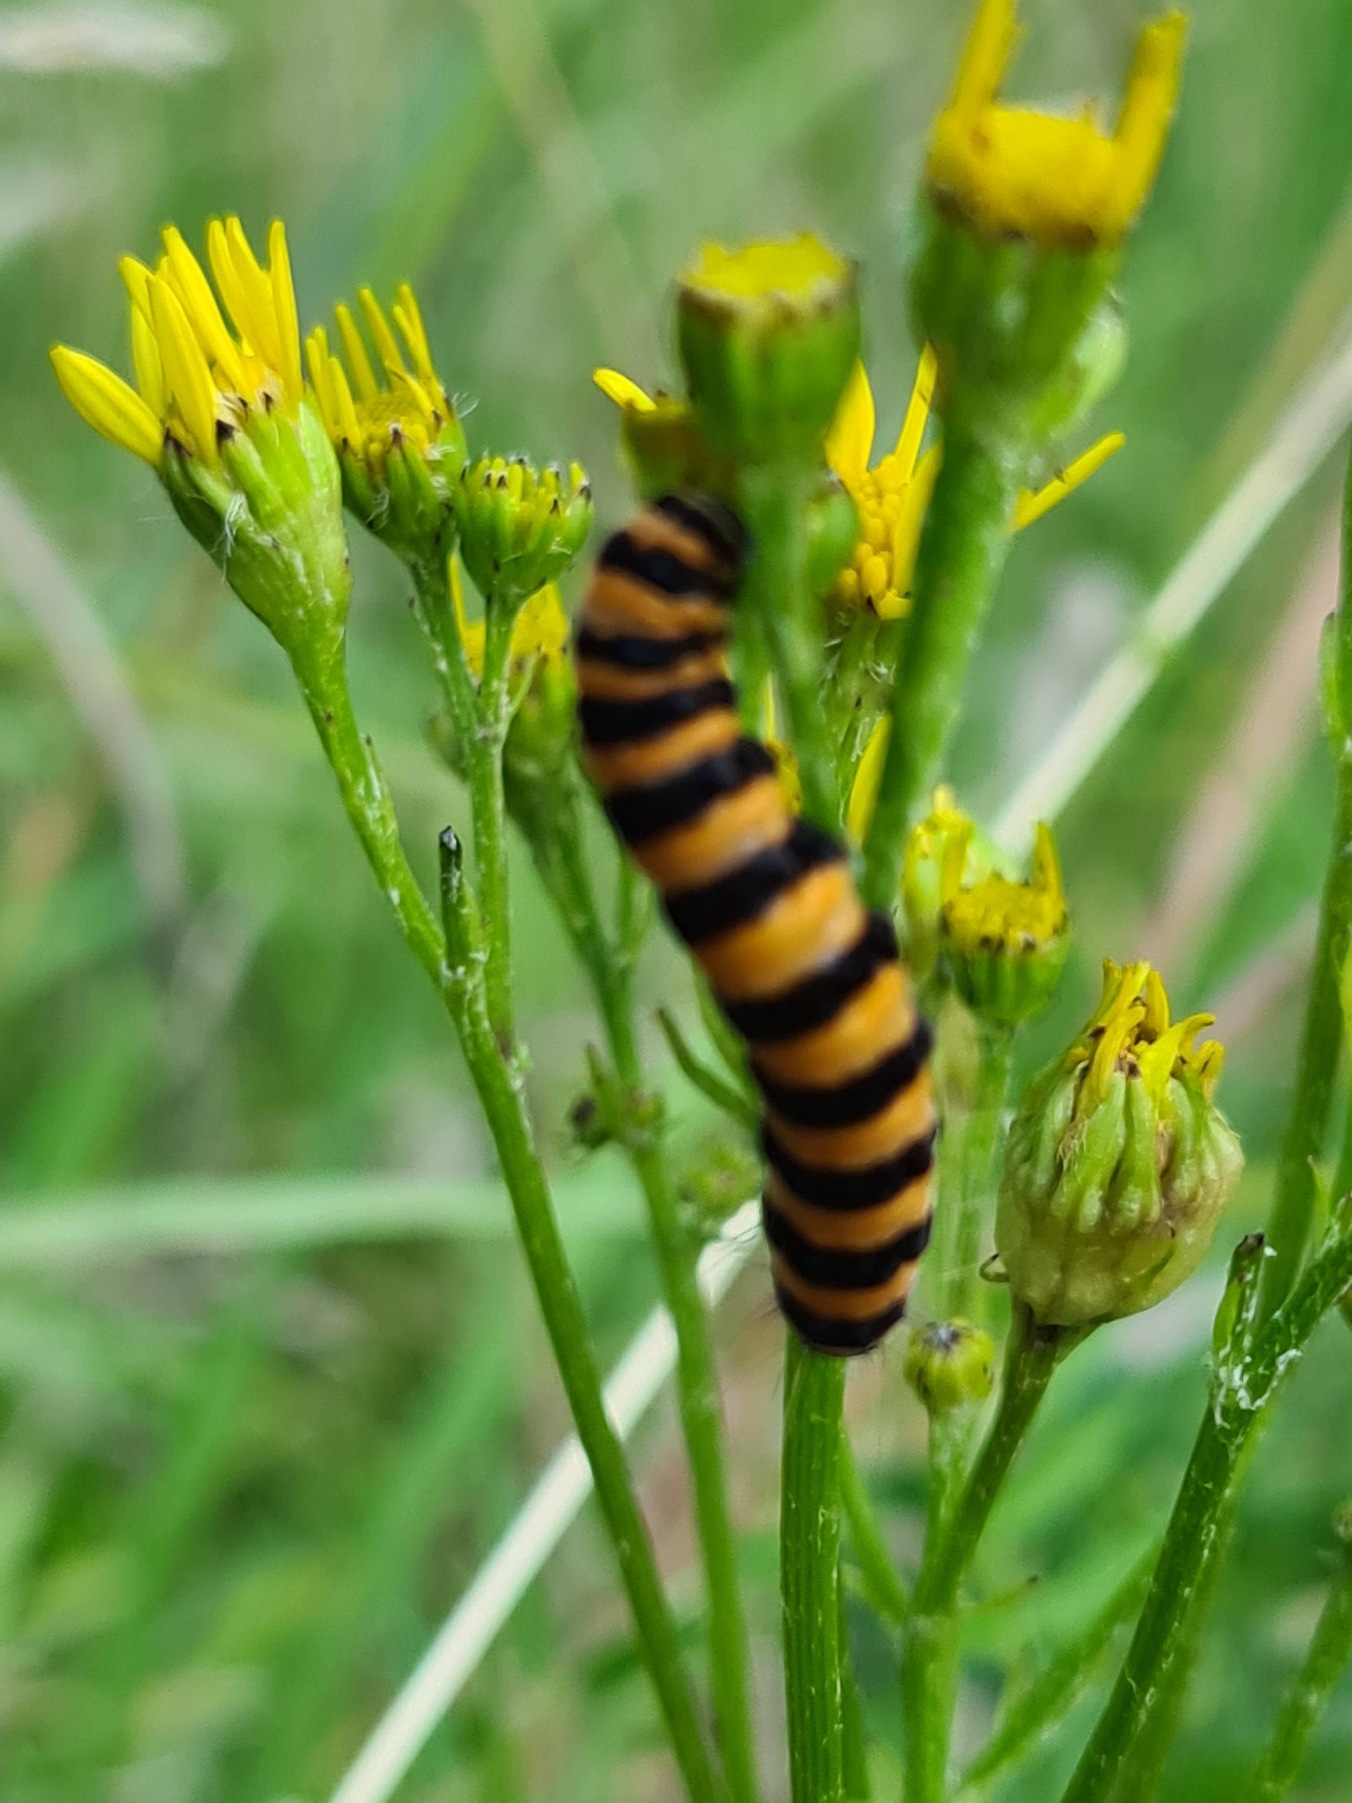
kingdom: Animalia
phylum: Arthropoda
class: Insecta
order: Lepidoptera
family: Erebidae
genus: Tyria
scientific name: Tyria jacobaeae
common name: Blodplet
